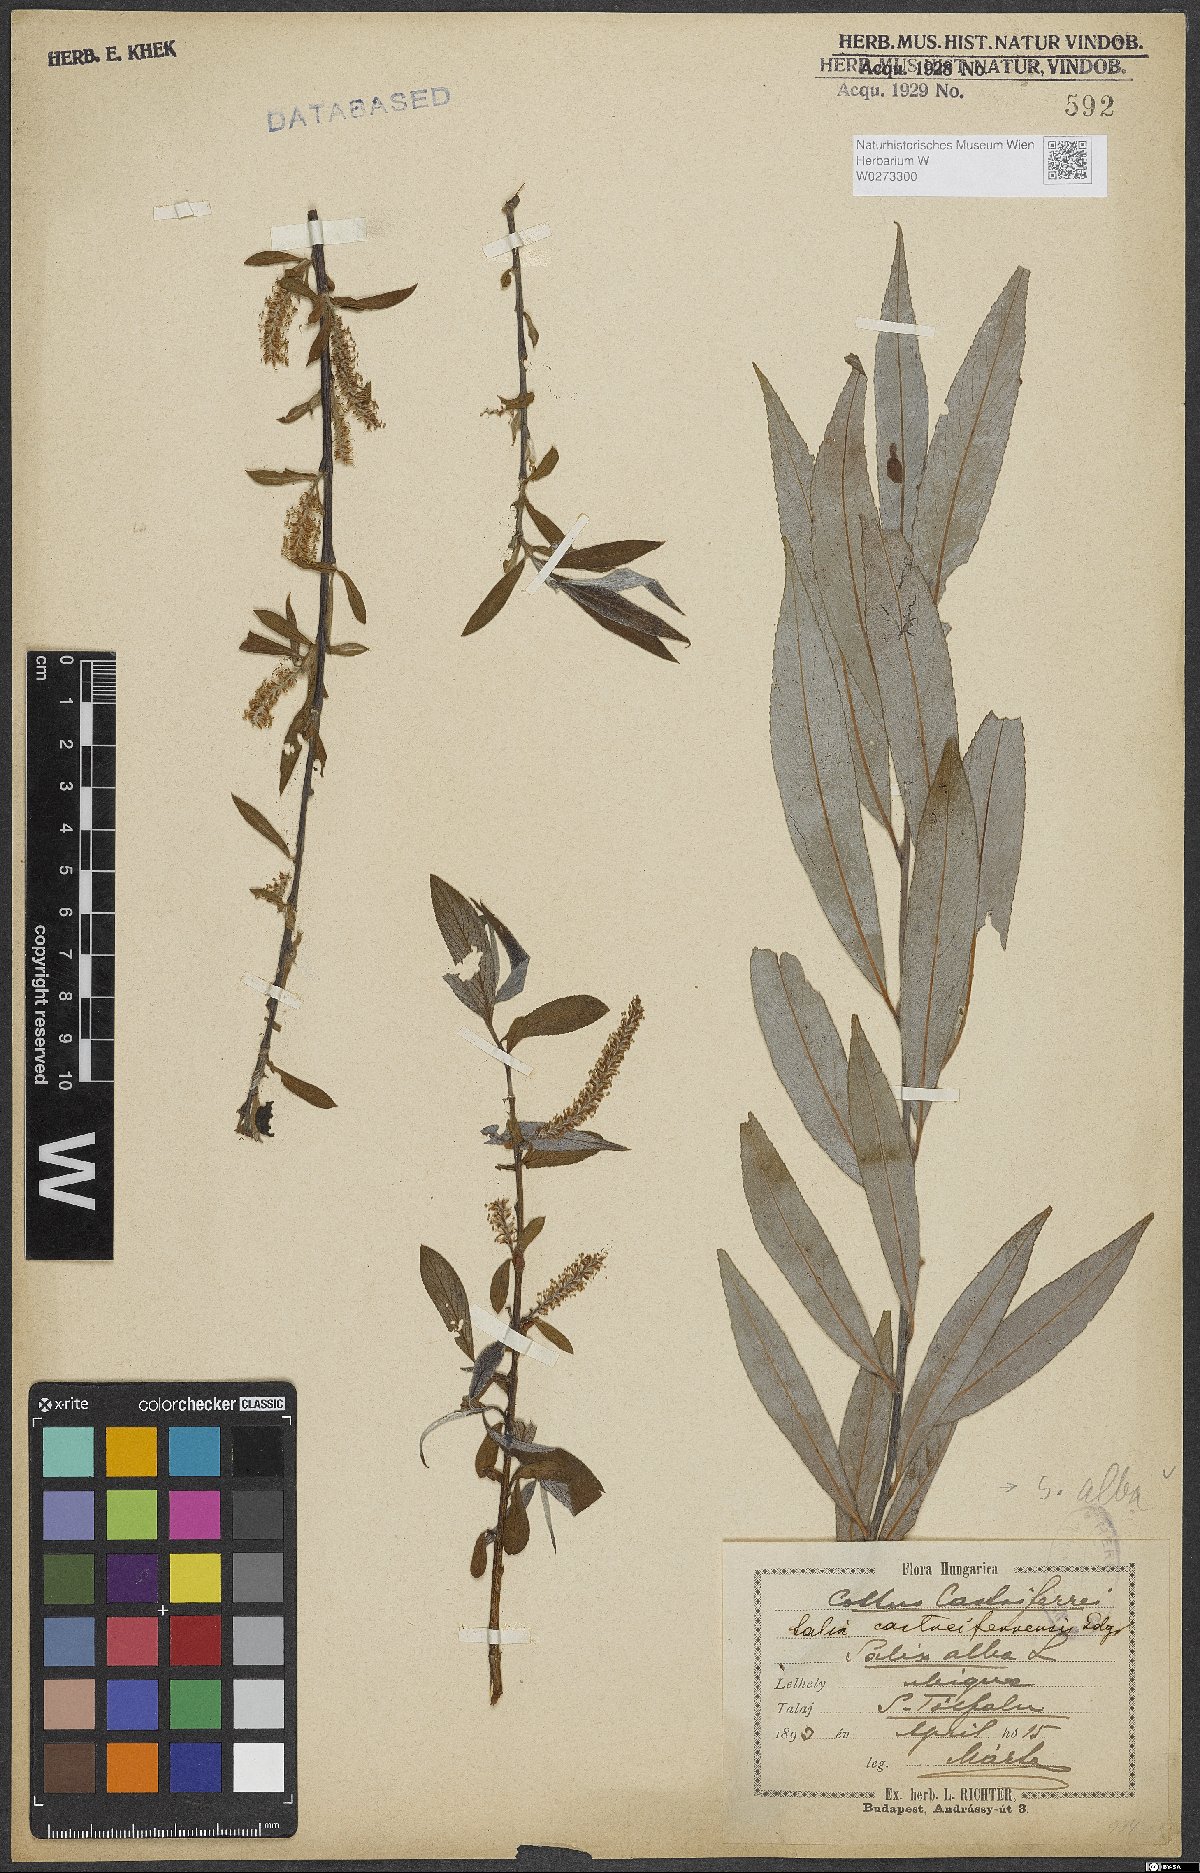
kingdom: Plantae
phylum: Tracheophyta
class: Magnoliopsida
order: Malpighiales
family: Salicaceae
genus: Salix
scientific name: Salix alba
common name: White willow
